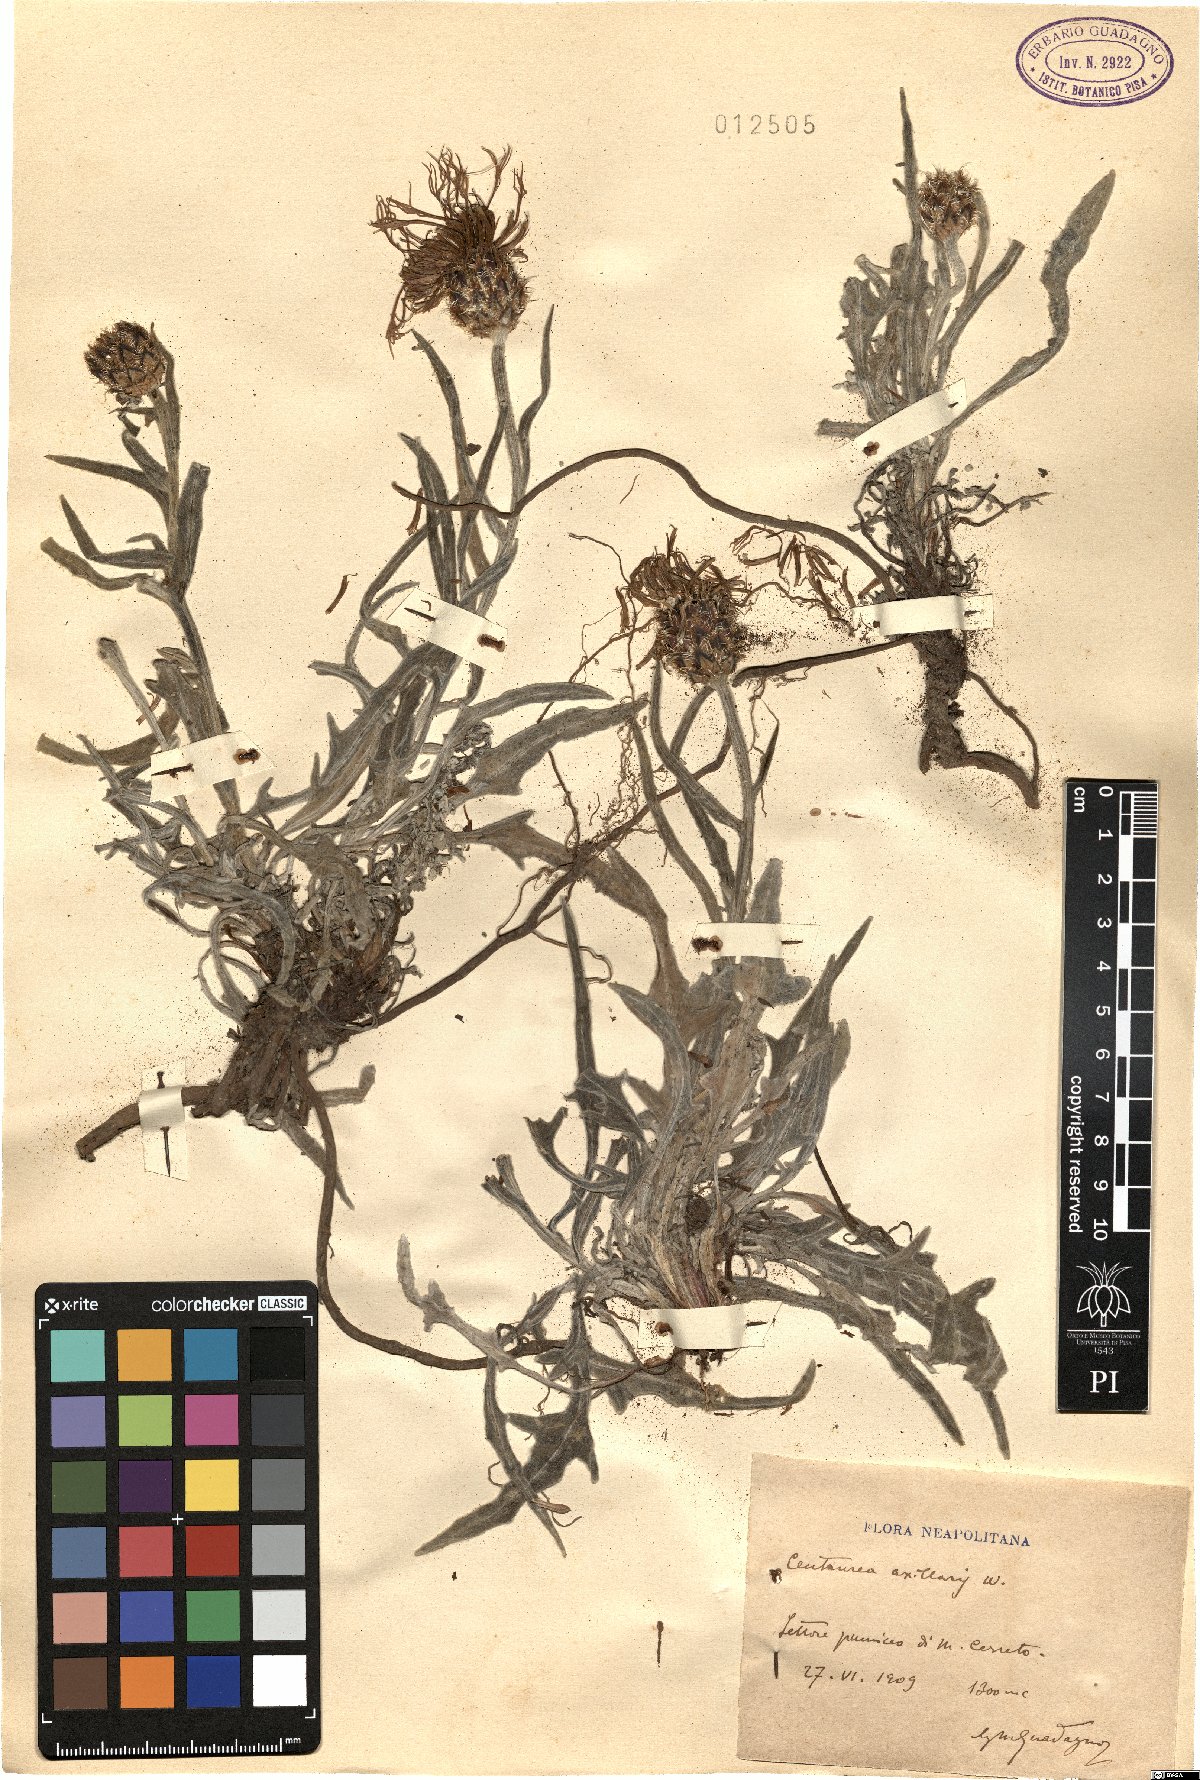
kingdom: Plantae
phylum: Tracheophyta
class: Magnoliopsida
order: Asterales
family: Asteraceae
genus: Centaurea
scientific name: Centaurea triumfettii
